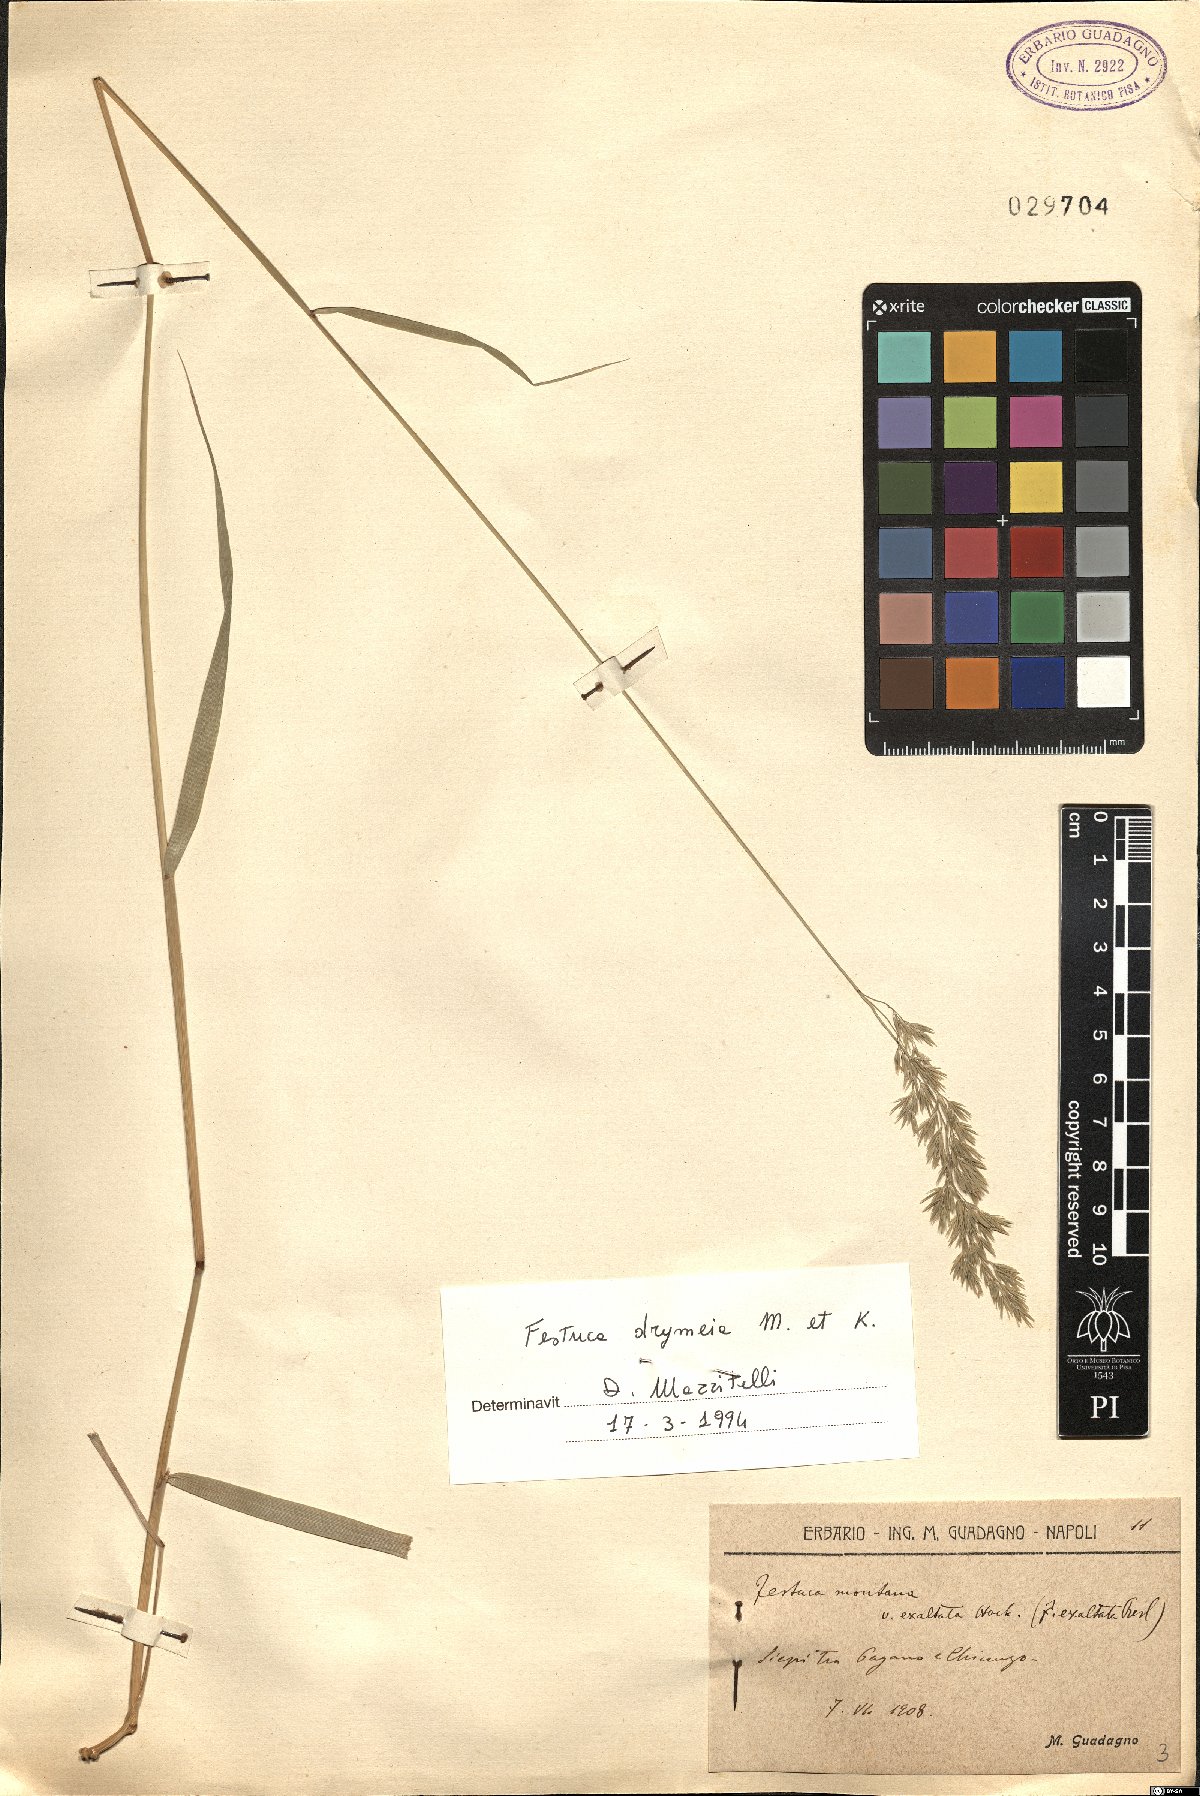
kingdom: Plantae
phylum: Tracheophyta
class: Liliopsida
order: Poales
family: Poaceae
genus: Festuca
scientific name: Festuca drymeja
